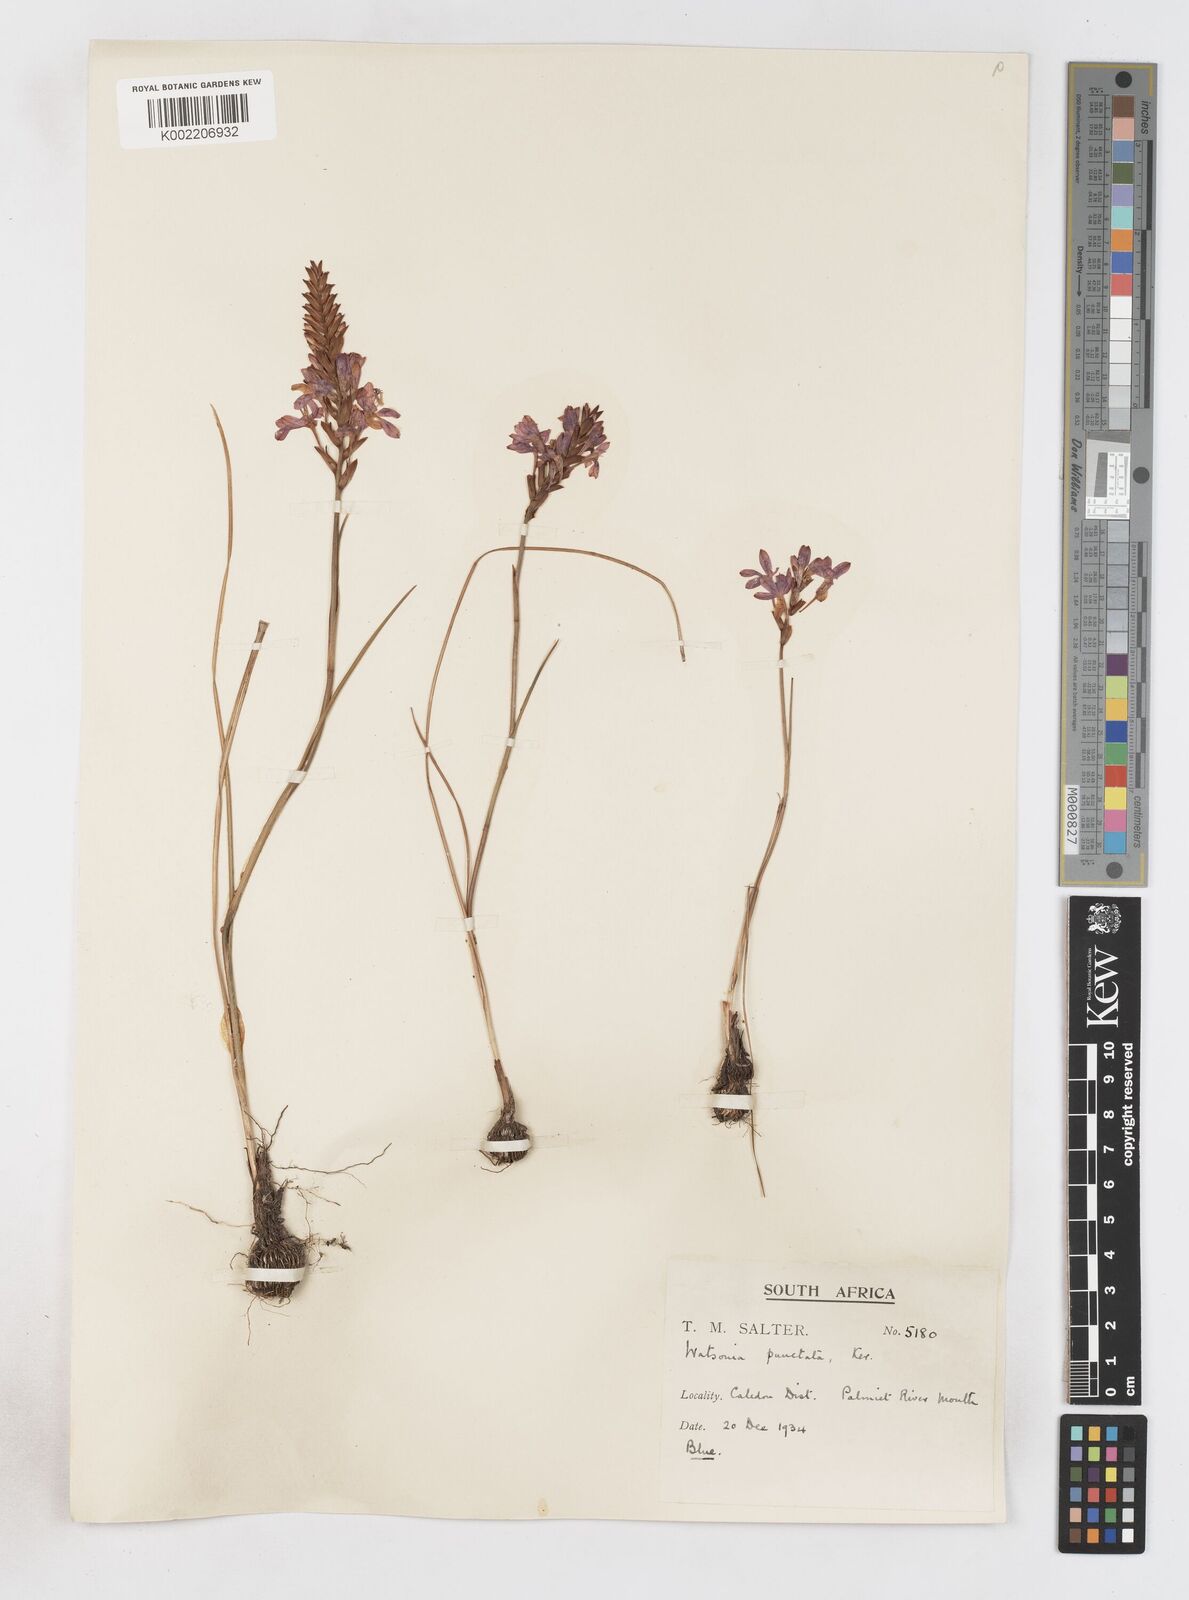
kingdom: Plantae
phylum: Tracheophyta
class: Liliopsida
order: Asparagales
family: Iridaceae
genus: Thereianthus
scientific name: Thereianthus spicatus
